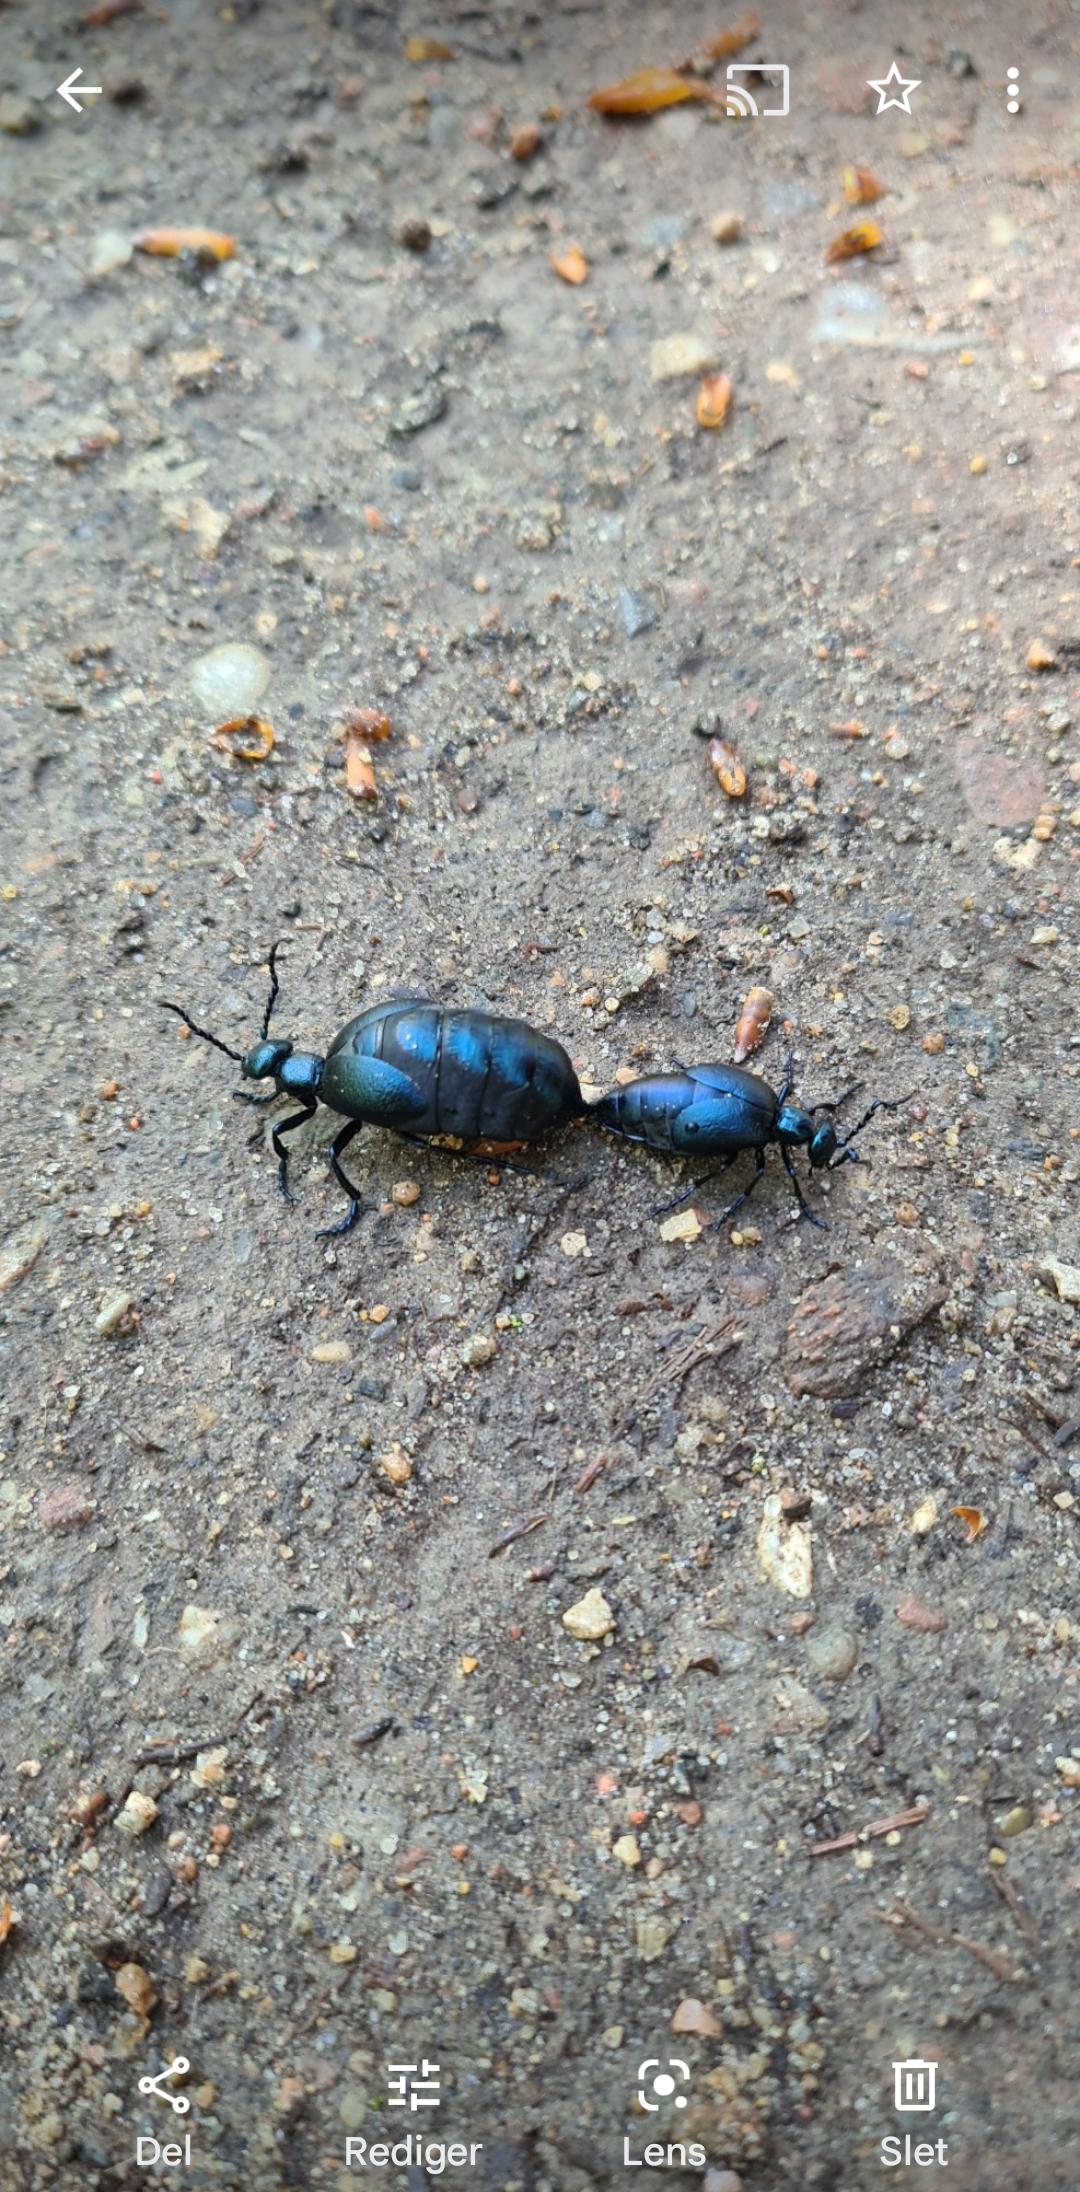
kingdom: Animalia
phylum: Arthropoda
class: Insecta
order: Coleoptera
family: Meloidae
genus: Meloe
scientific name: Meloe violaceus
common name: Blå oliebille
